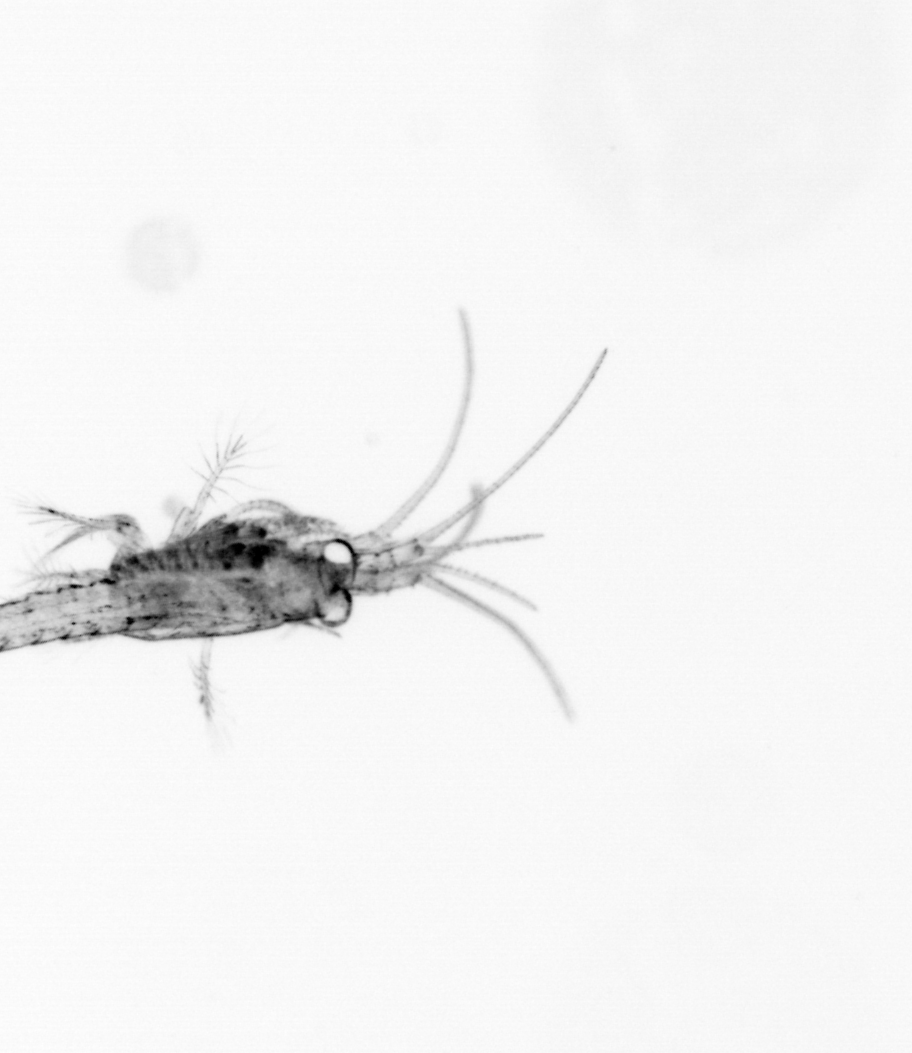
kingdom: Animalia
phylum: Arthropoda
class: Malacostraca
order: Decapoda
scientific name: Decapoda
